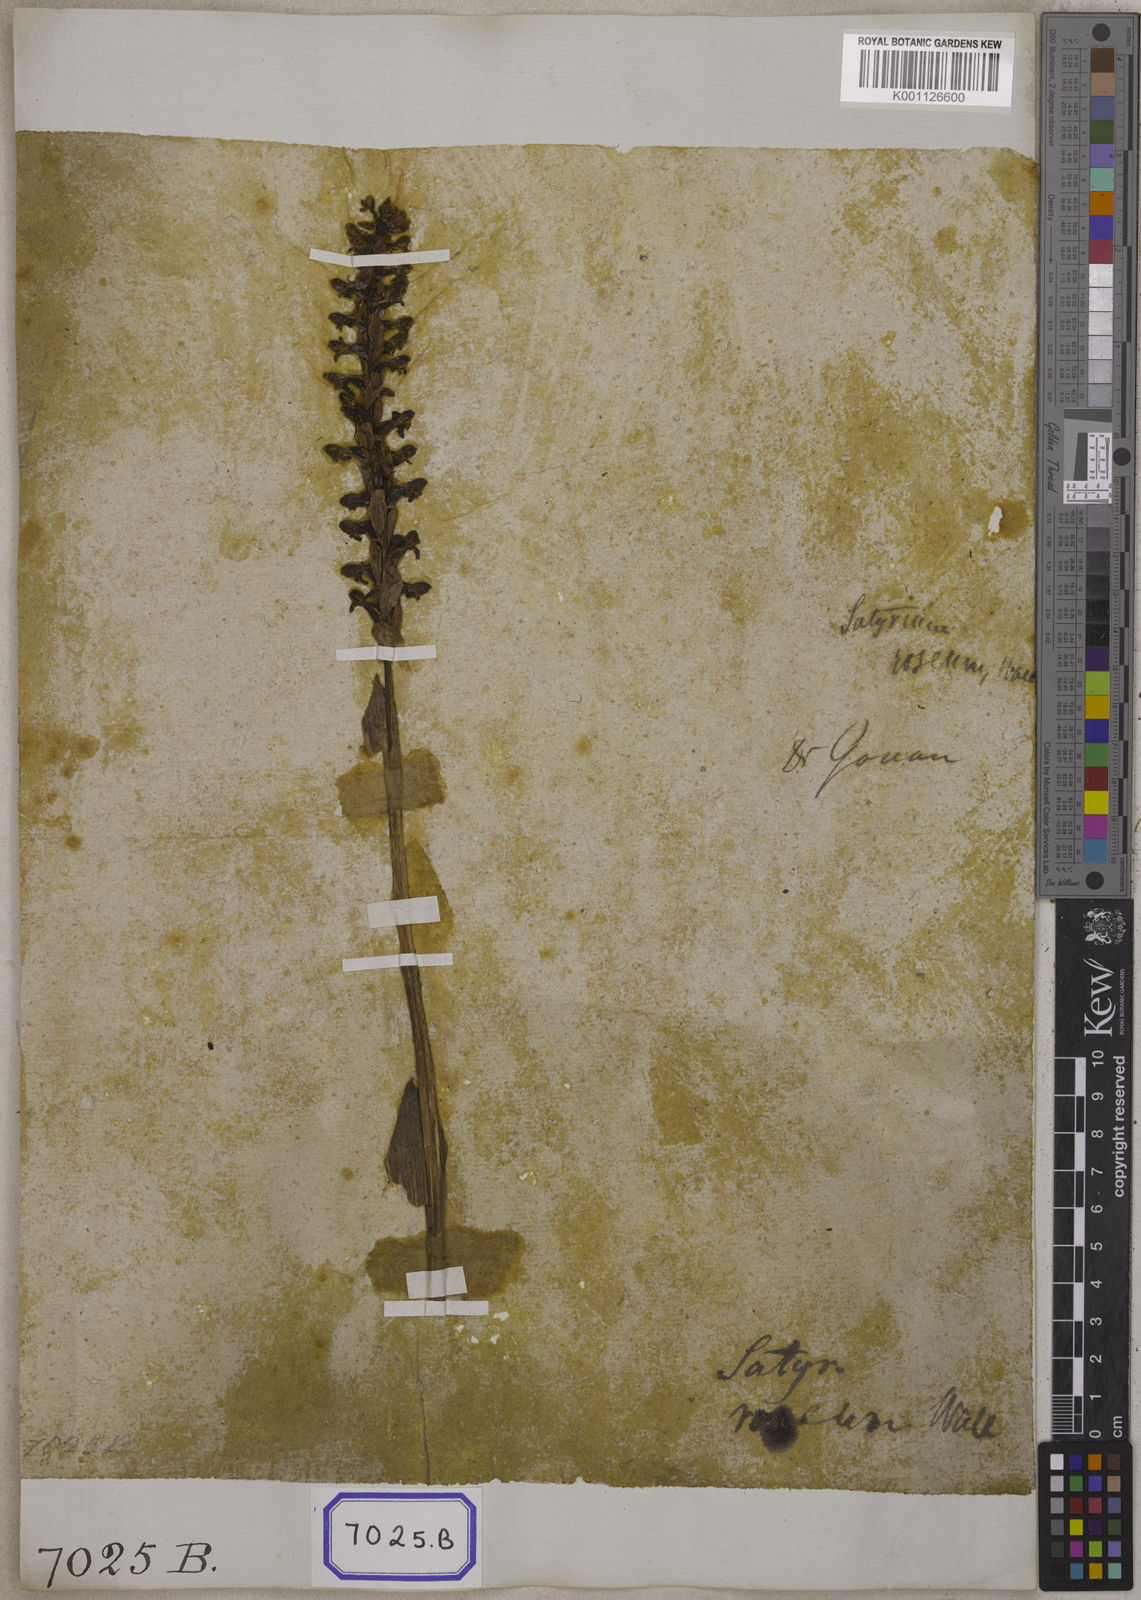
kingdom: Plantae
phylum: Tracheophyta
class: Liliopsida
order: Asparagales
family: Orchidaceae
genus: Satyrium
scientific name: Satyrium nepalense
